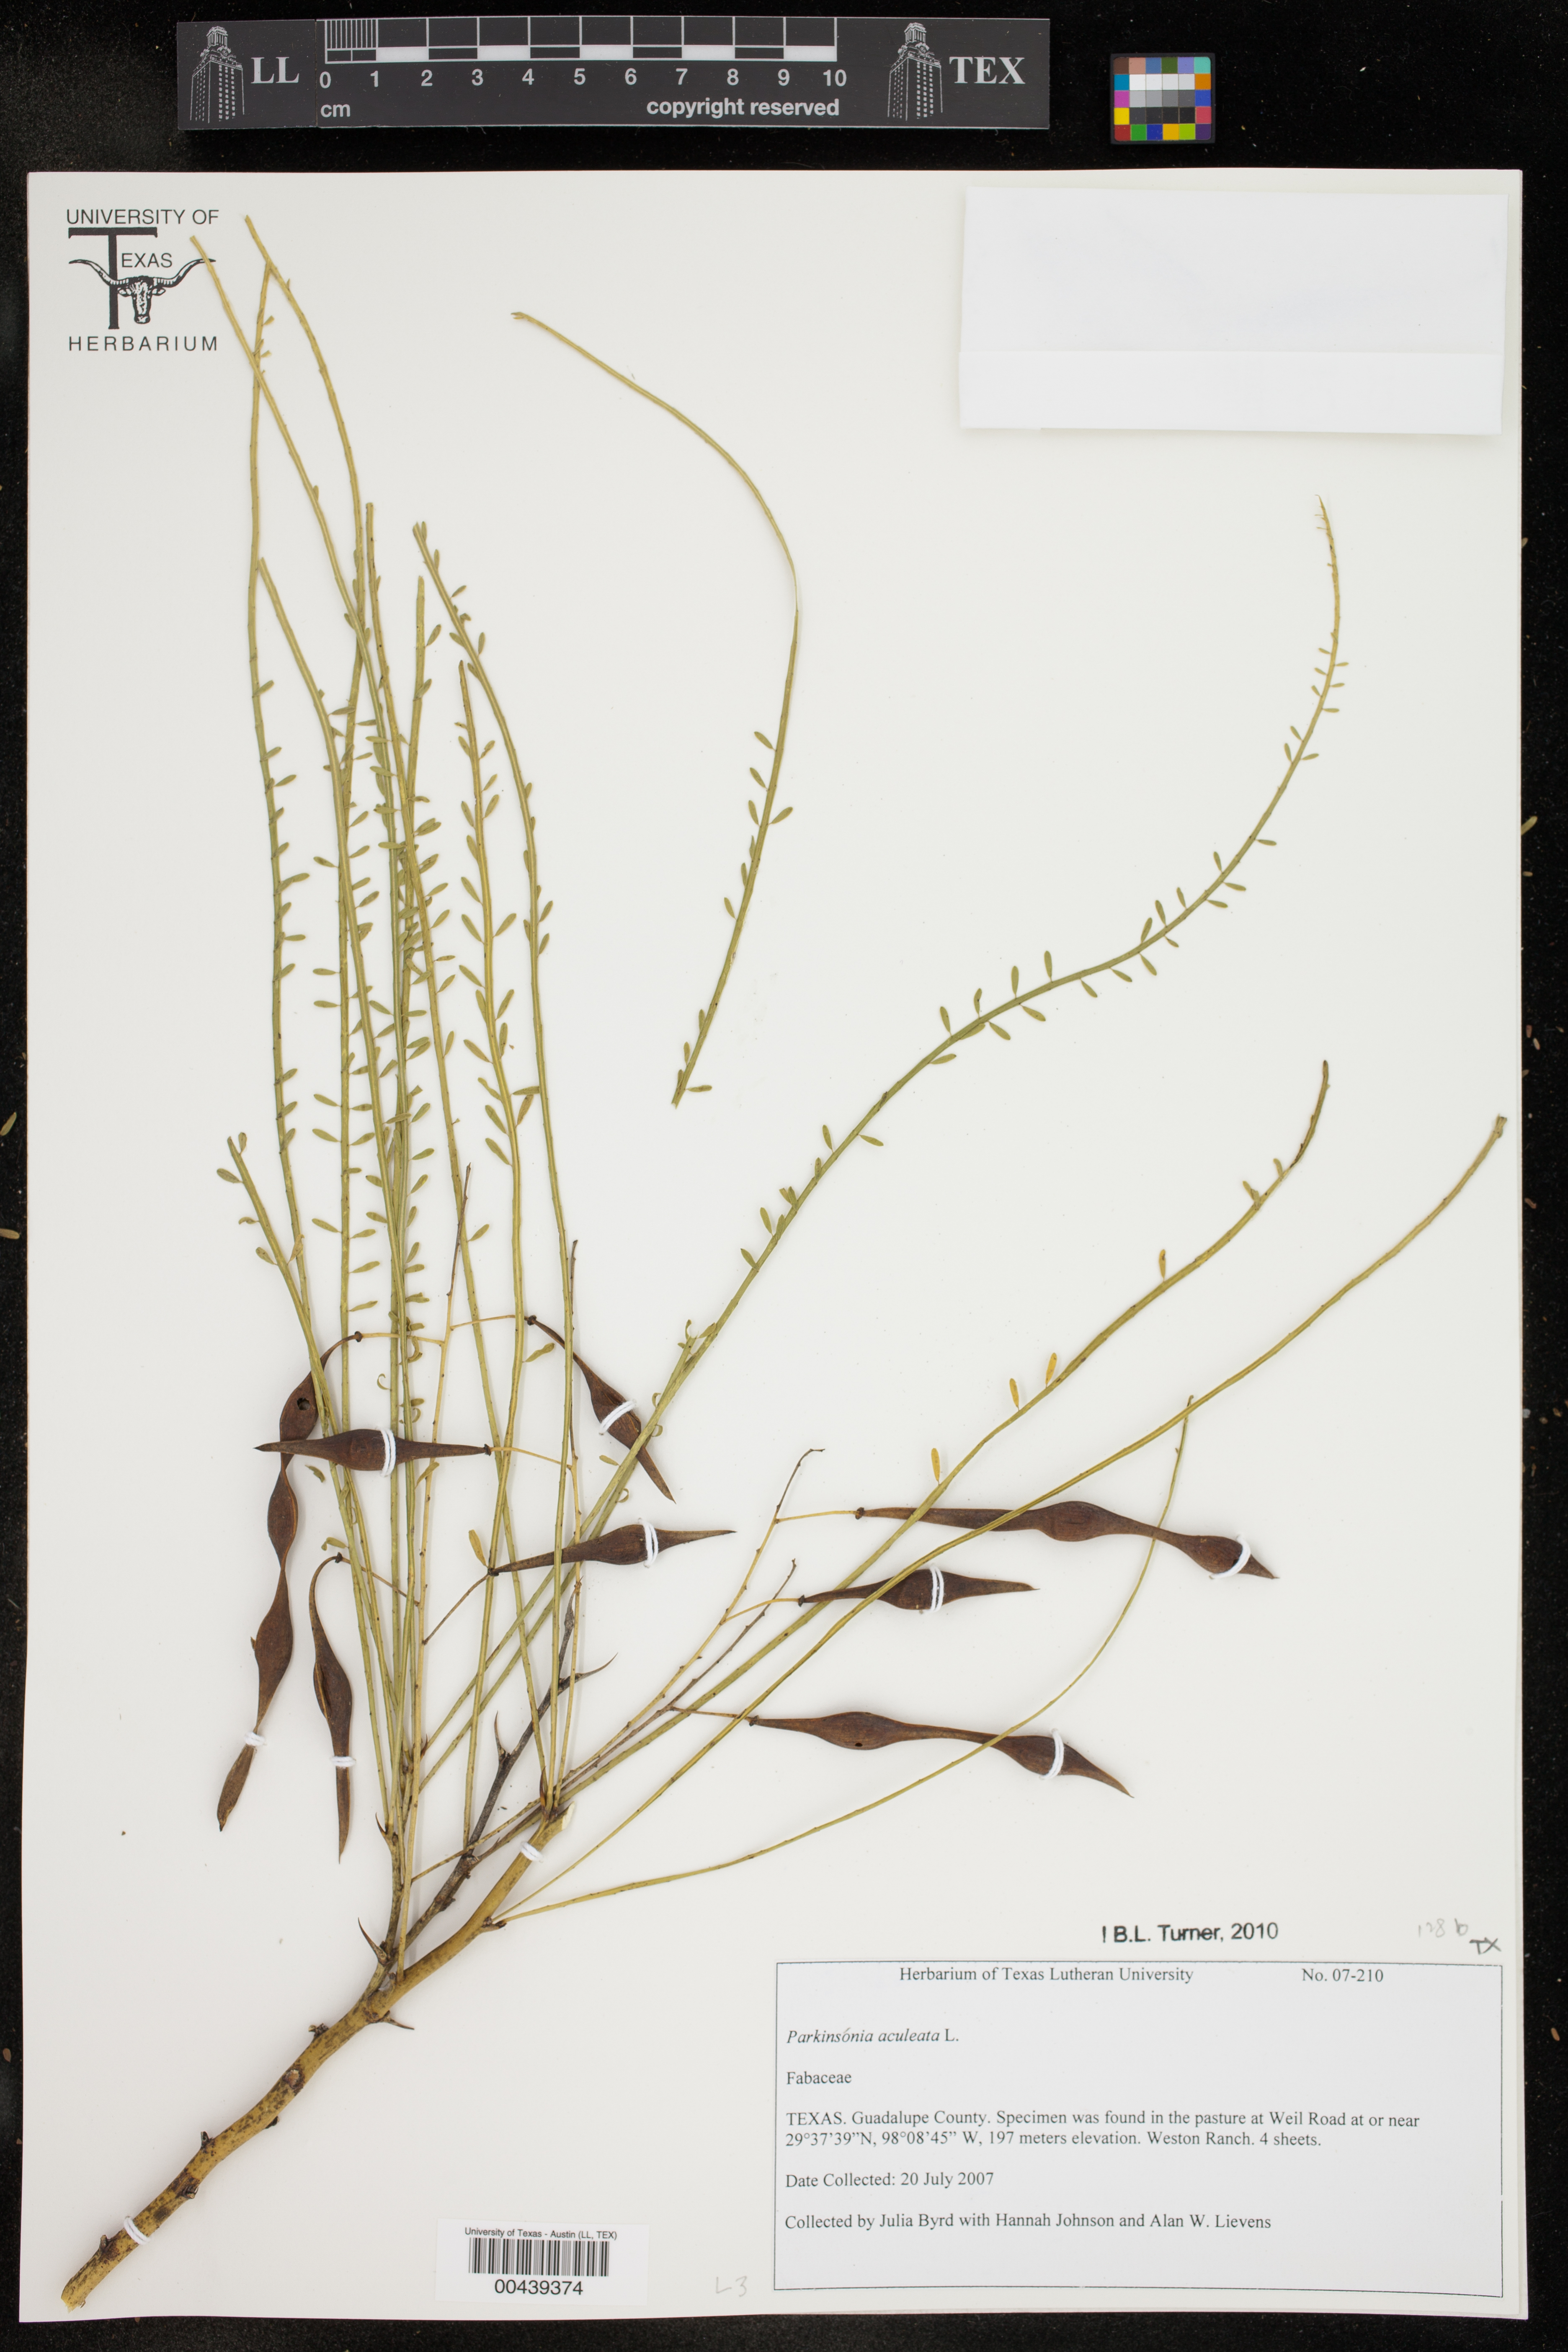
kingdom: Plantae
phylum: Tracheophyta
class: Magnoliopsida
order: Fabales
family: Fabaceae
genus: Parkinsonia
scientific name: Parkinsonia aculeata
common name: Jerusalem thorn
